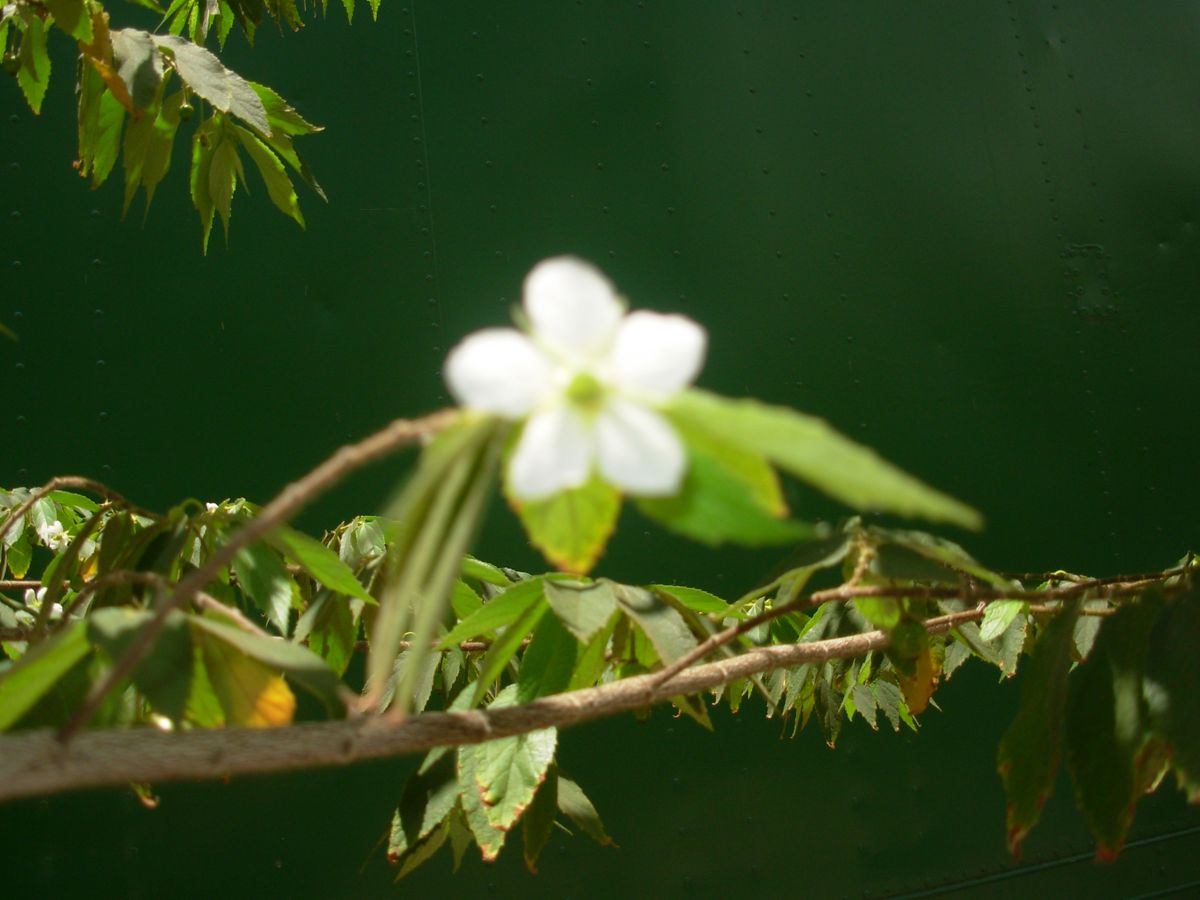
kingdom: Plantae
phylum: Tracheophyta
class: Magnoliopsida
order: Malvales
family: Muntingiaceae
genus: Muntingia
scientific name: Muntingia calabura
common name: Strawberrytree
